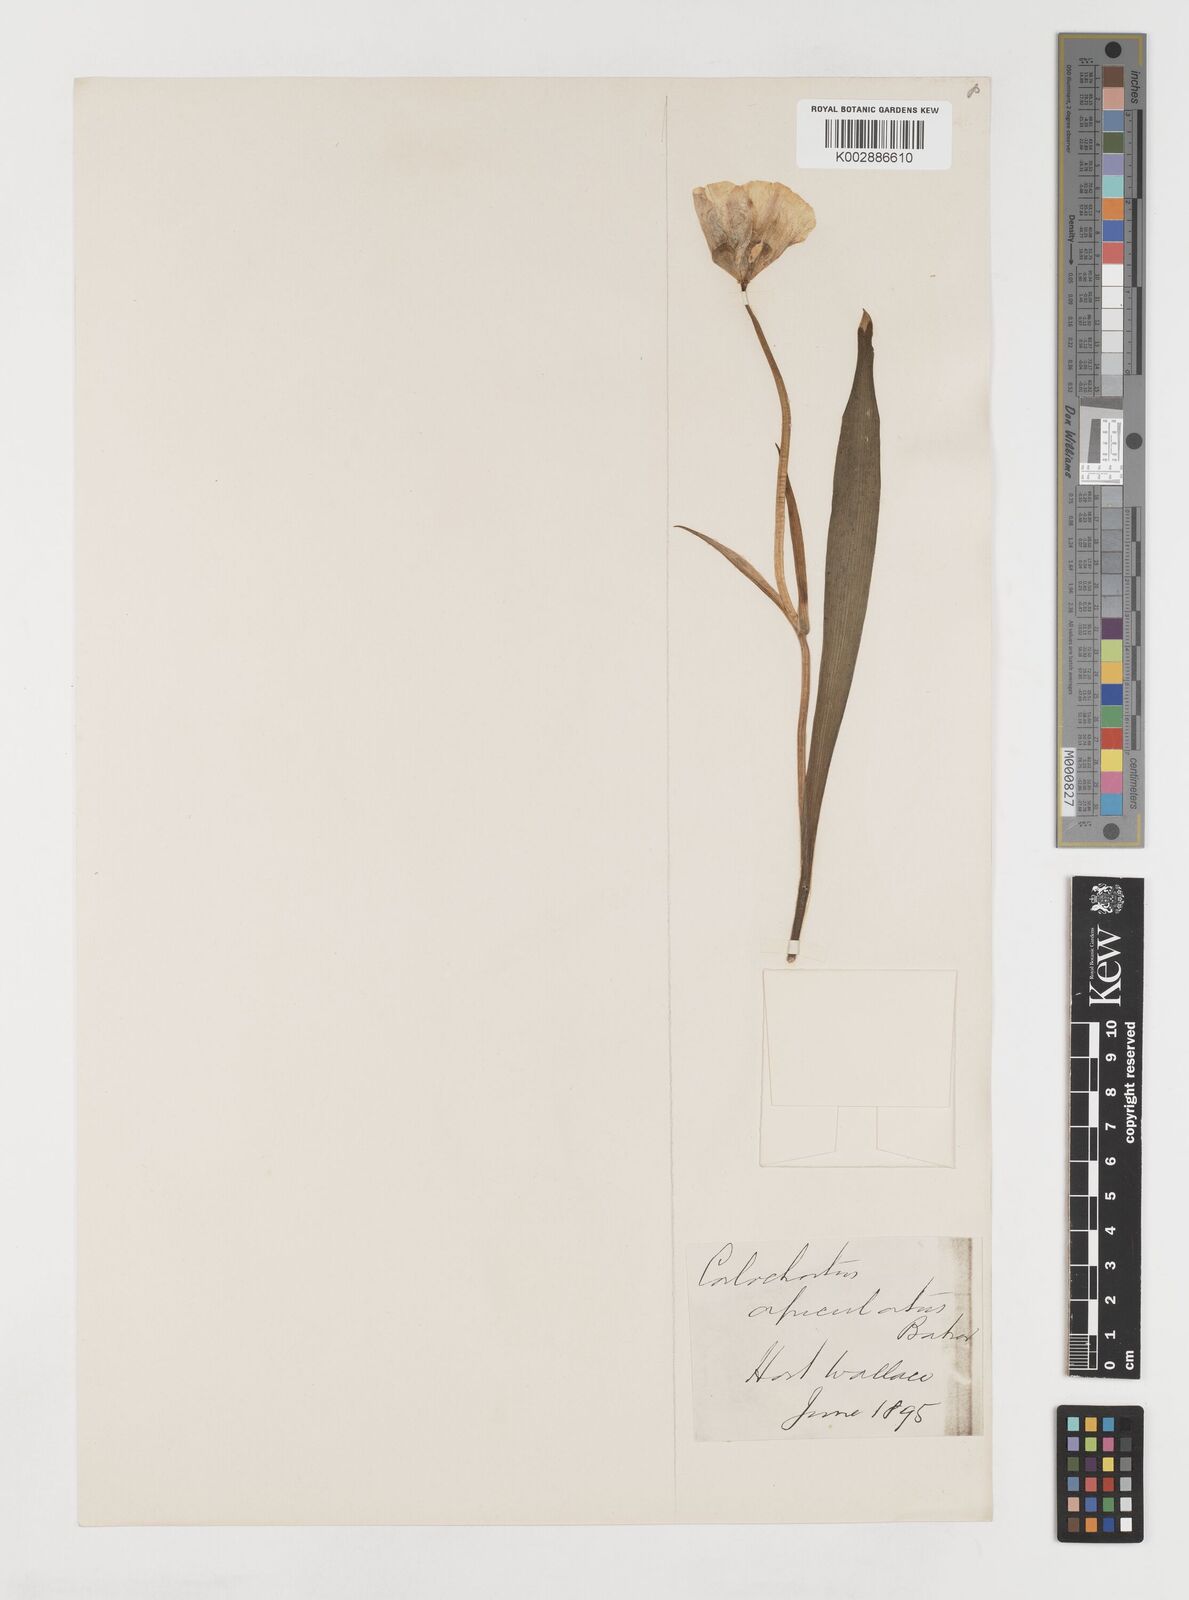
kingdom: Plantae
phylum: Tracheophyta
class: Liliopsida
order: Liliales
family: Liliaceae
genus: Calochortus
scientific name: Calochortus apiculatus
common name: Baker's mariposa lily
